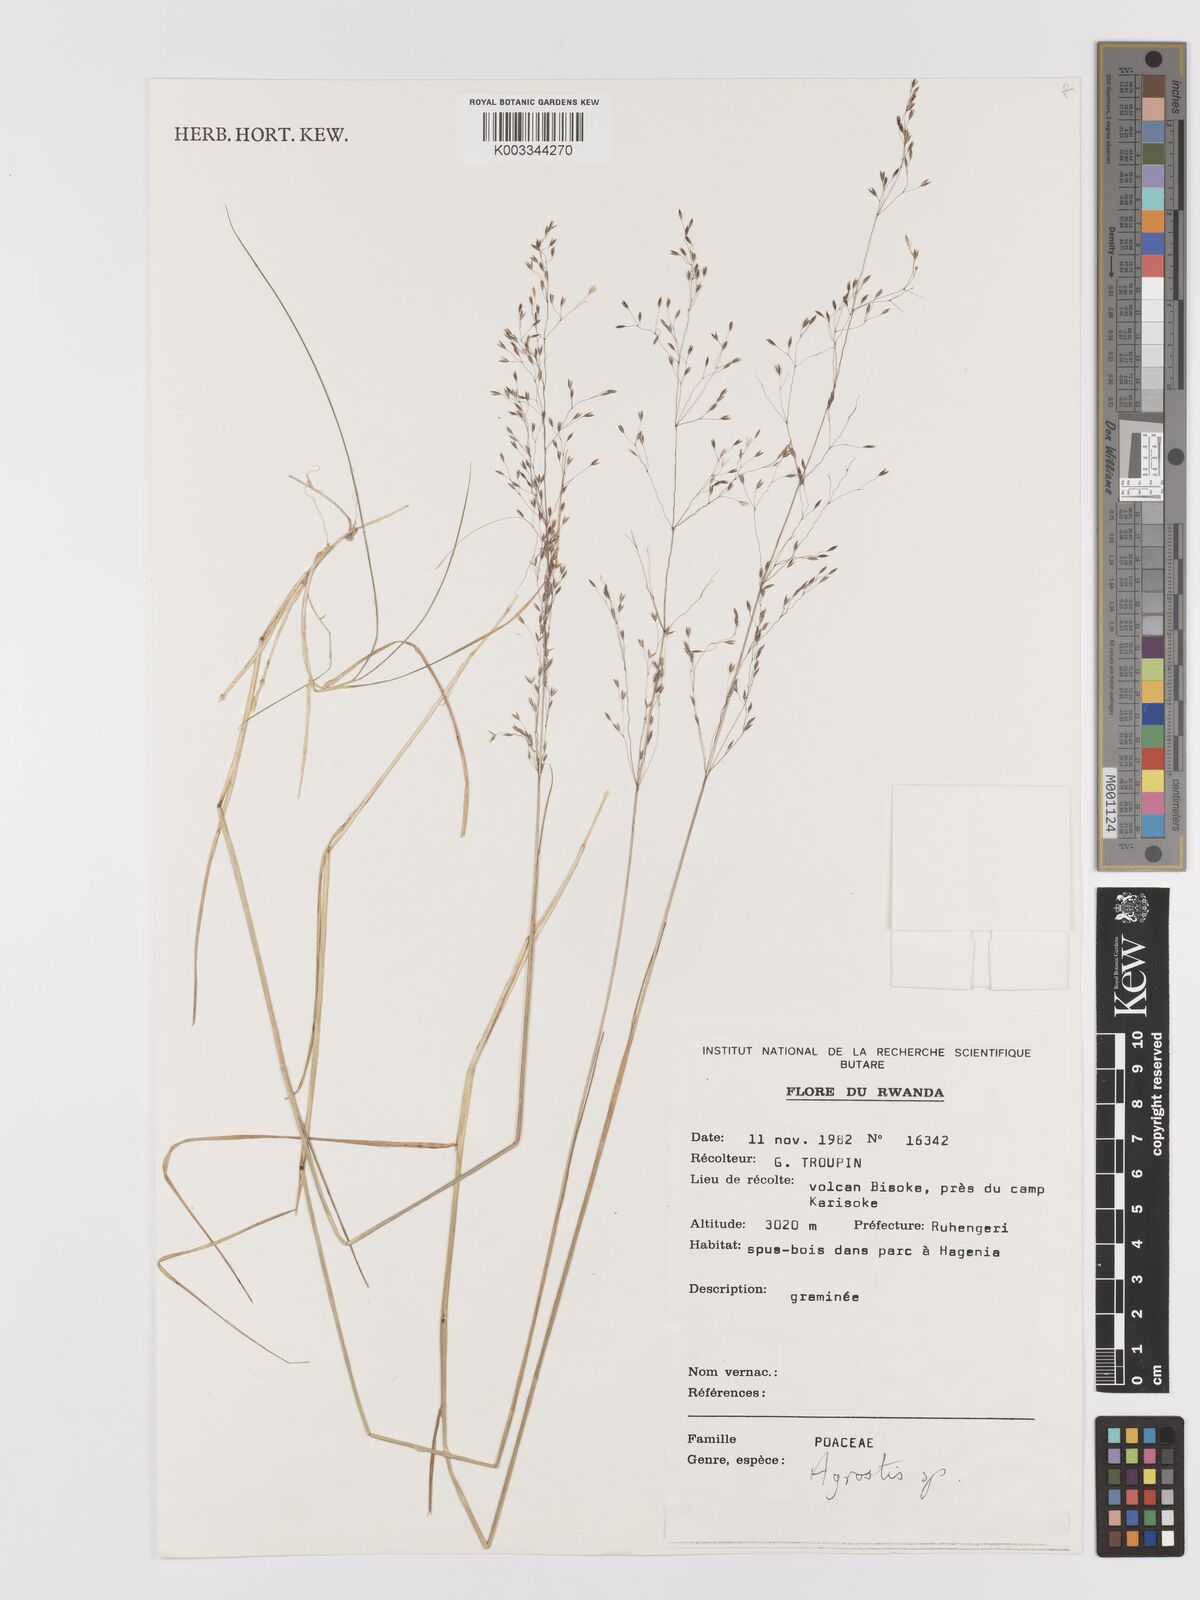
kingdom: Plantae
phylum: Tracheophyta
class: Liliopsida
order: Poales
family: Poaceae
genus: Agrostis
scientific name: Agrostis
